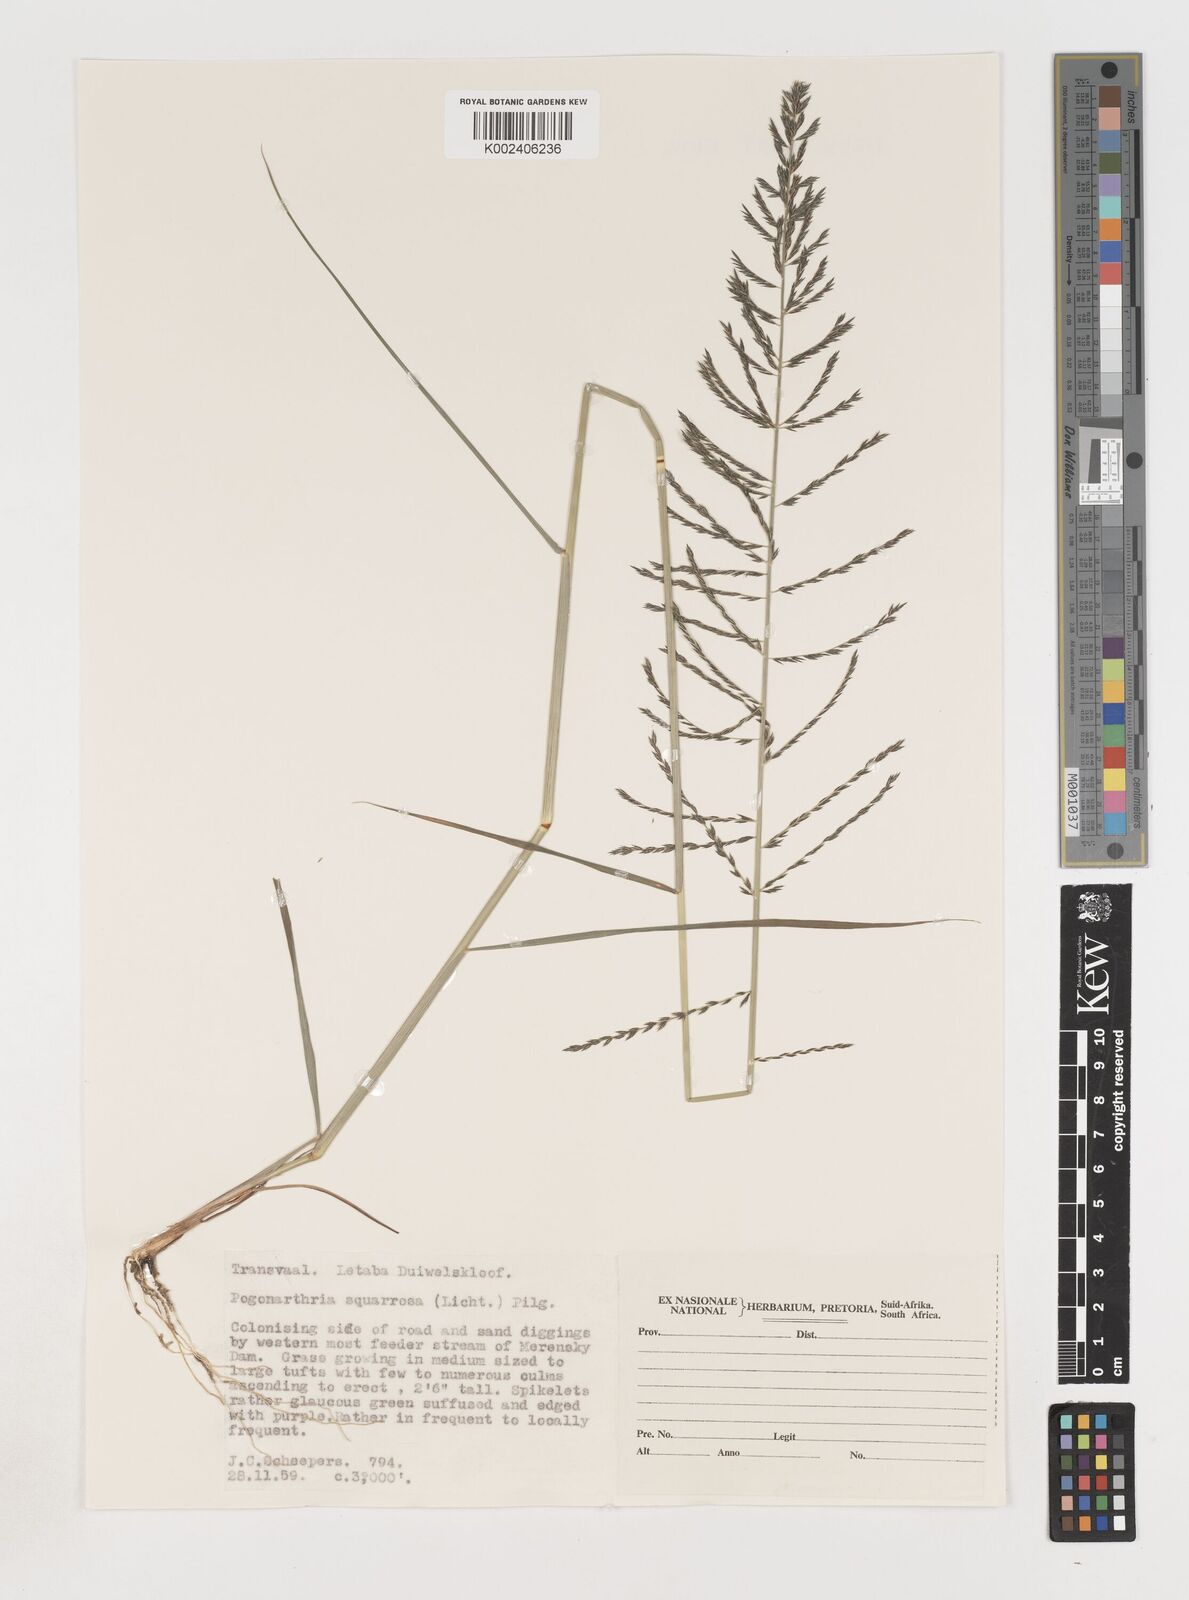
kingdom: Plantae
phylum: Tracheophyta
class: Liliopsida
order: Poales
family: Poaceae
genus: Pogonarthria
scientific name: Pogonarthria squarrosa
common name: Grass
